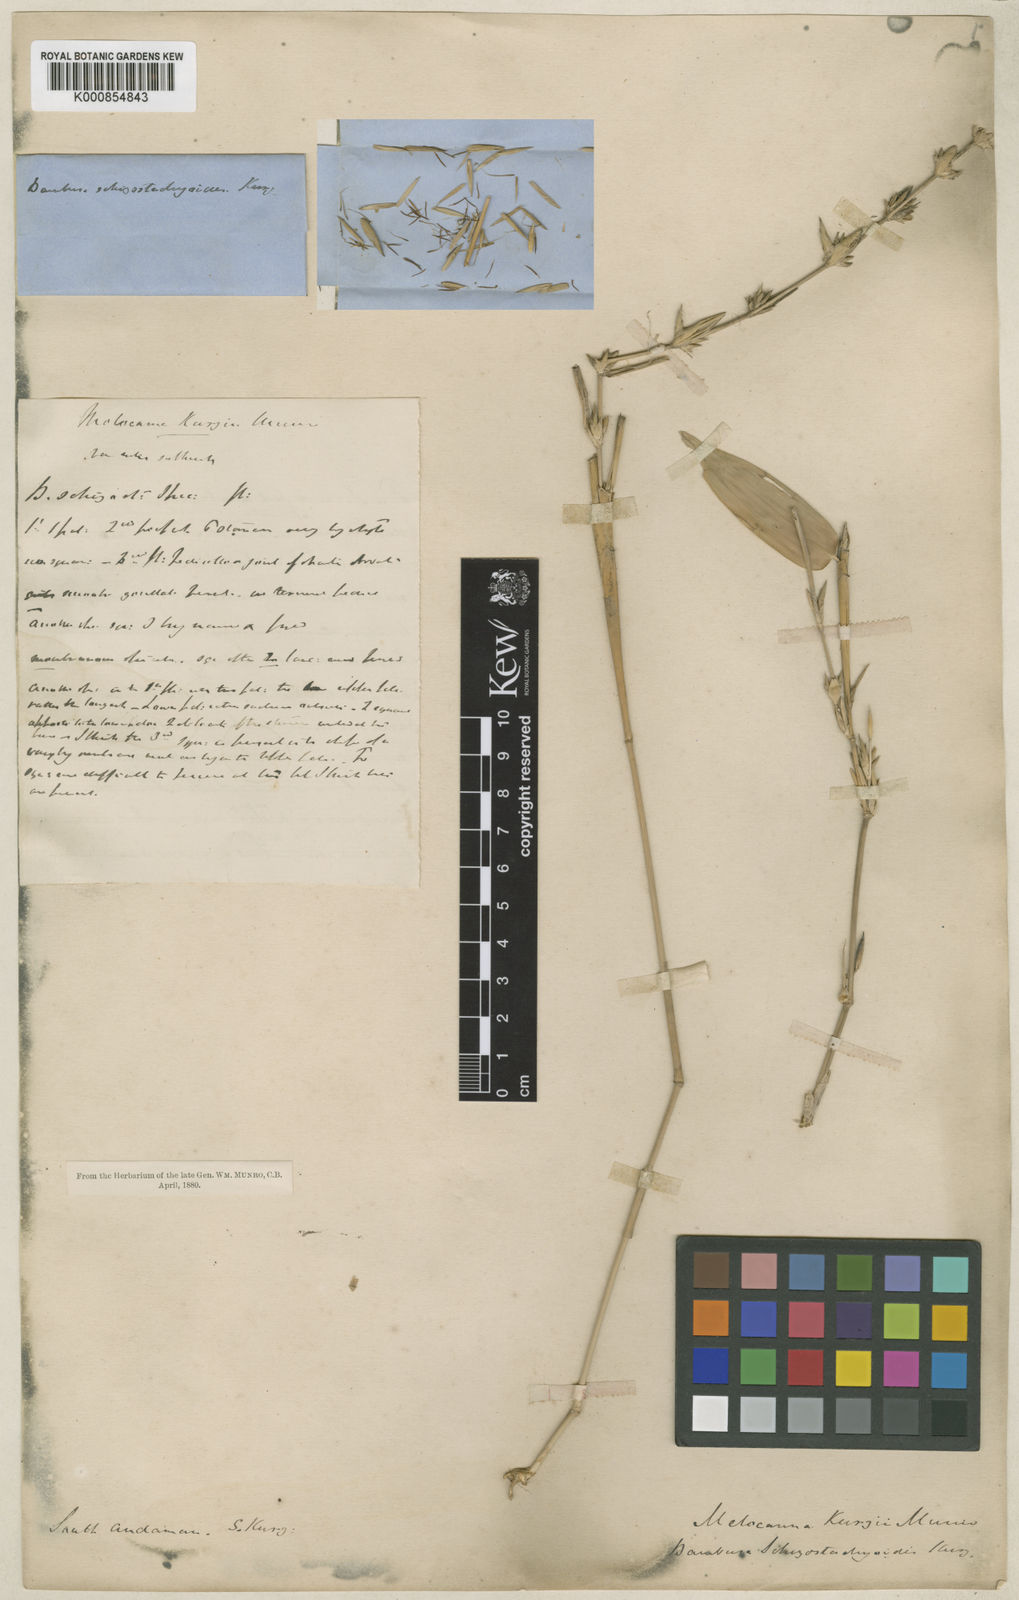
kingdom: Plantae
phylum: Tracheophyta
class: Liliopsida
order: Poales
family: Poaceae
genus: Pseudobambusa
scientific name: Pseudobambusa schizostachyoides
